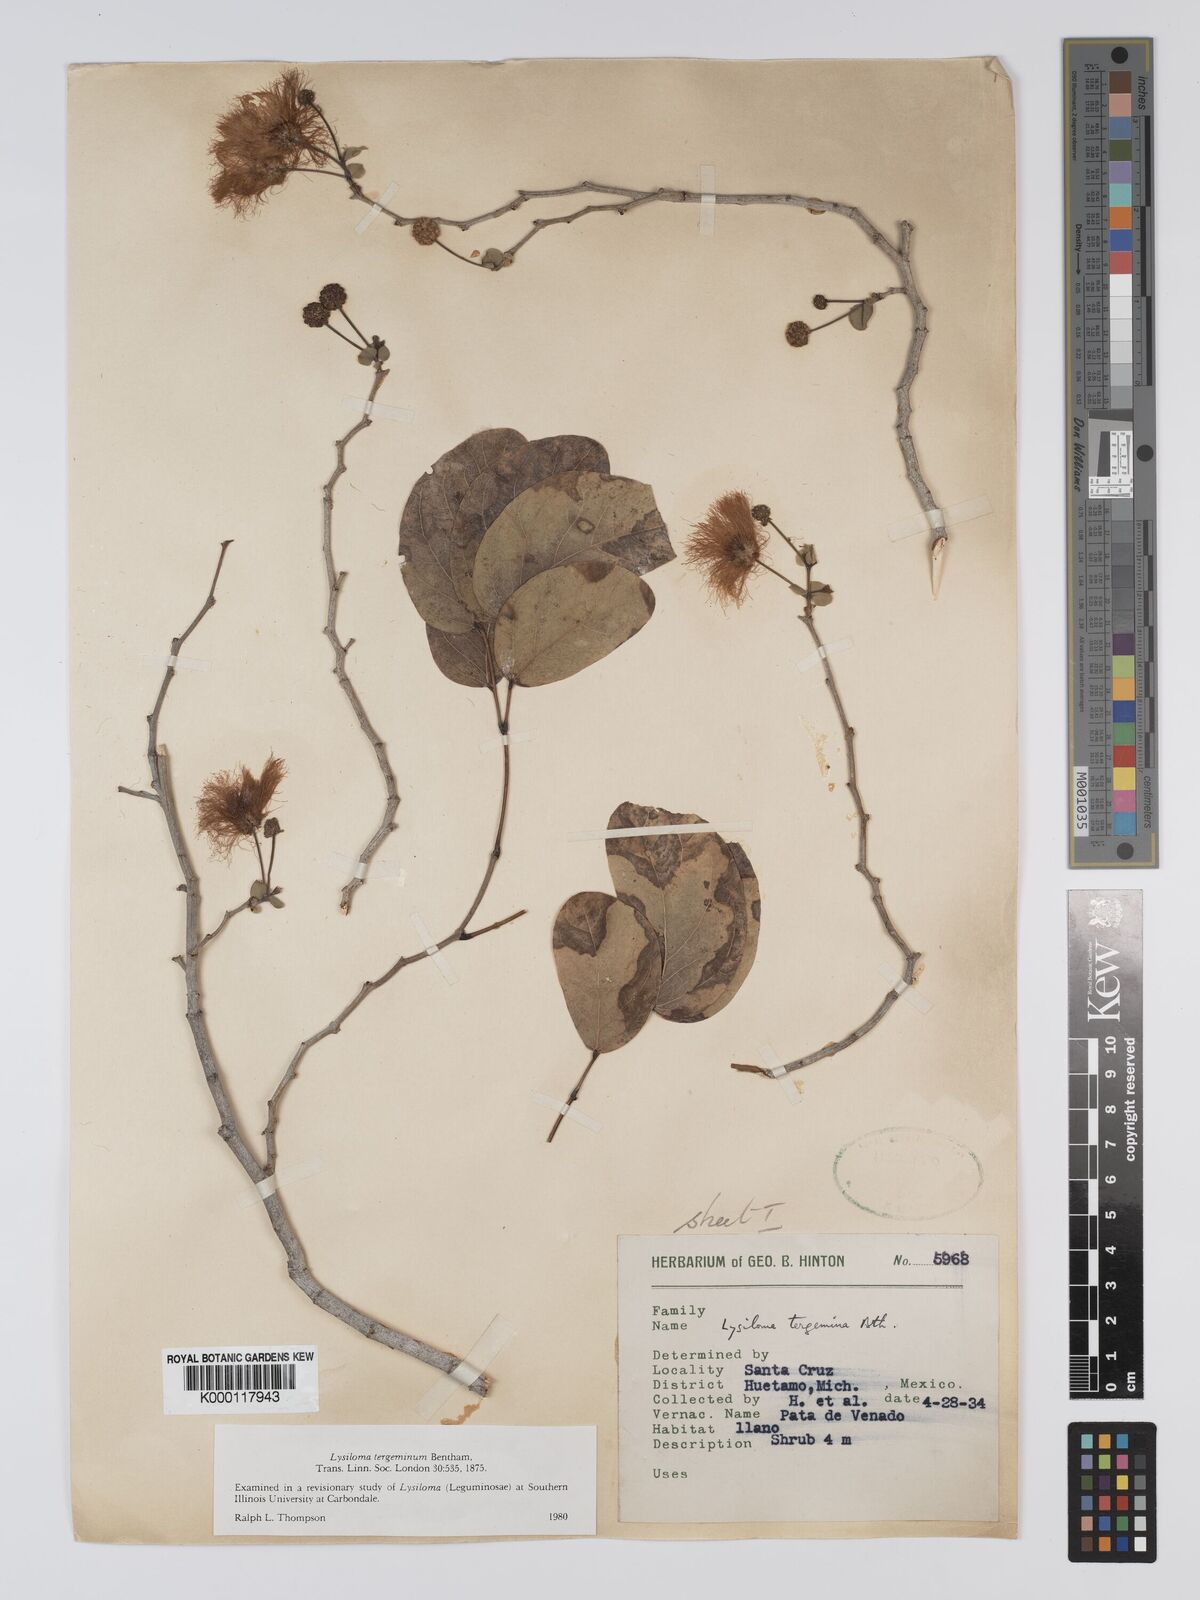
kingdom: Plantae
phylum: Tracheophyta
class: Magnoliopsida
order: Fabales
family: Fabaceae
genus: Lysiloma
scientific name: Lysiloma tergeminum
